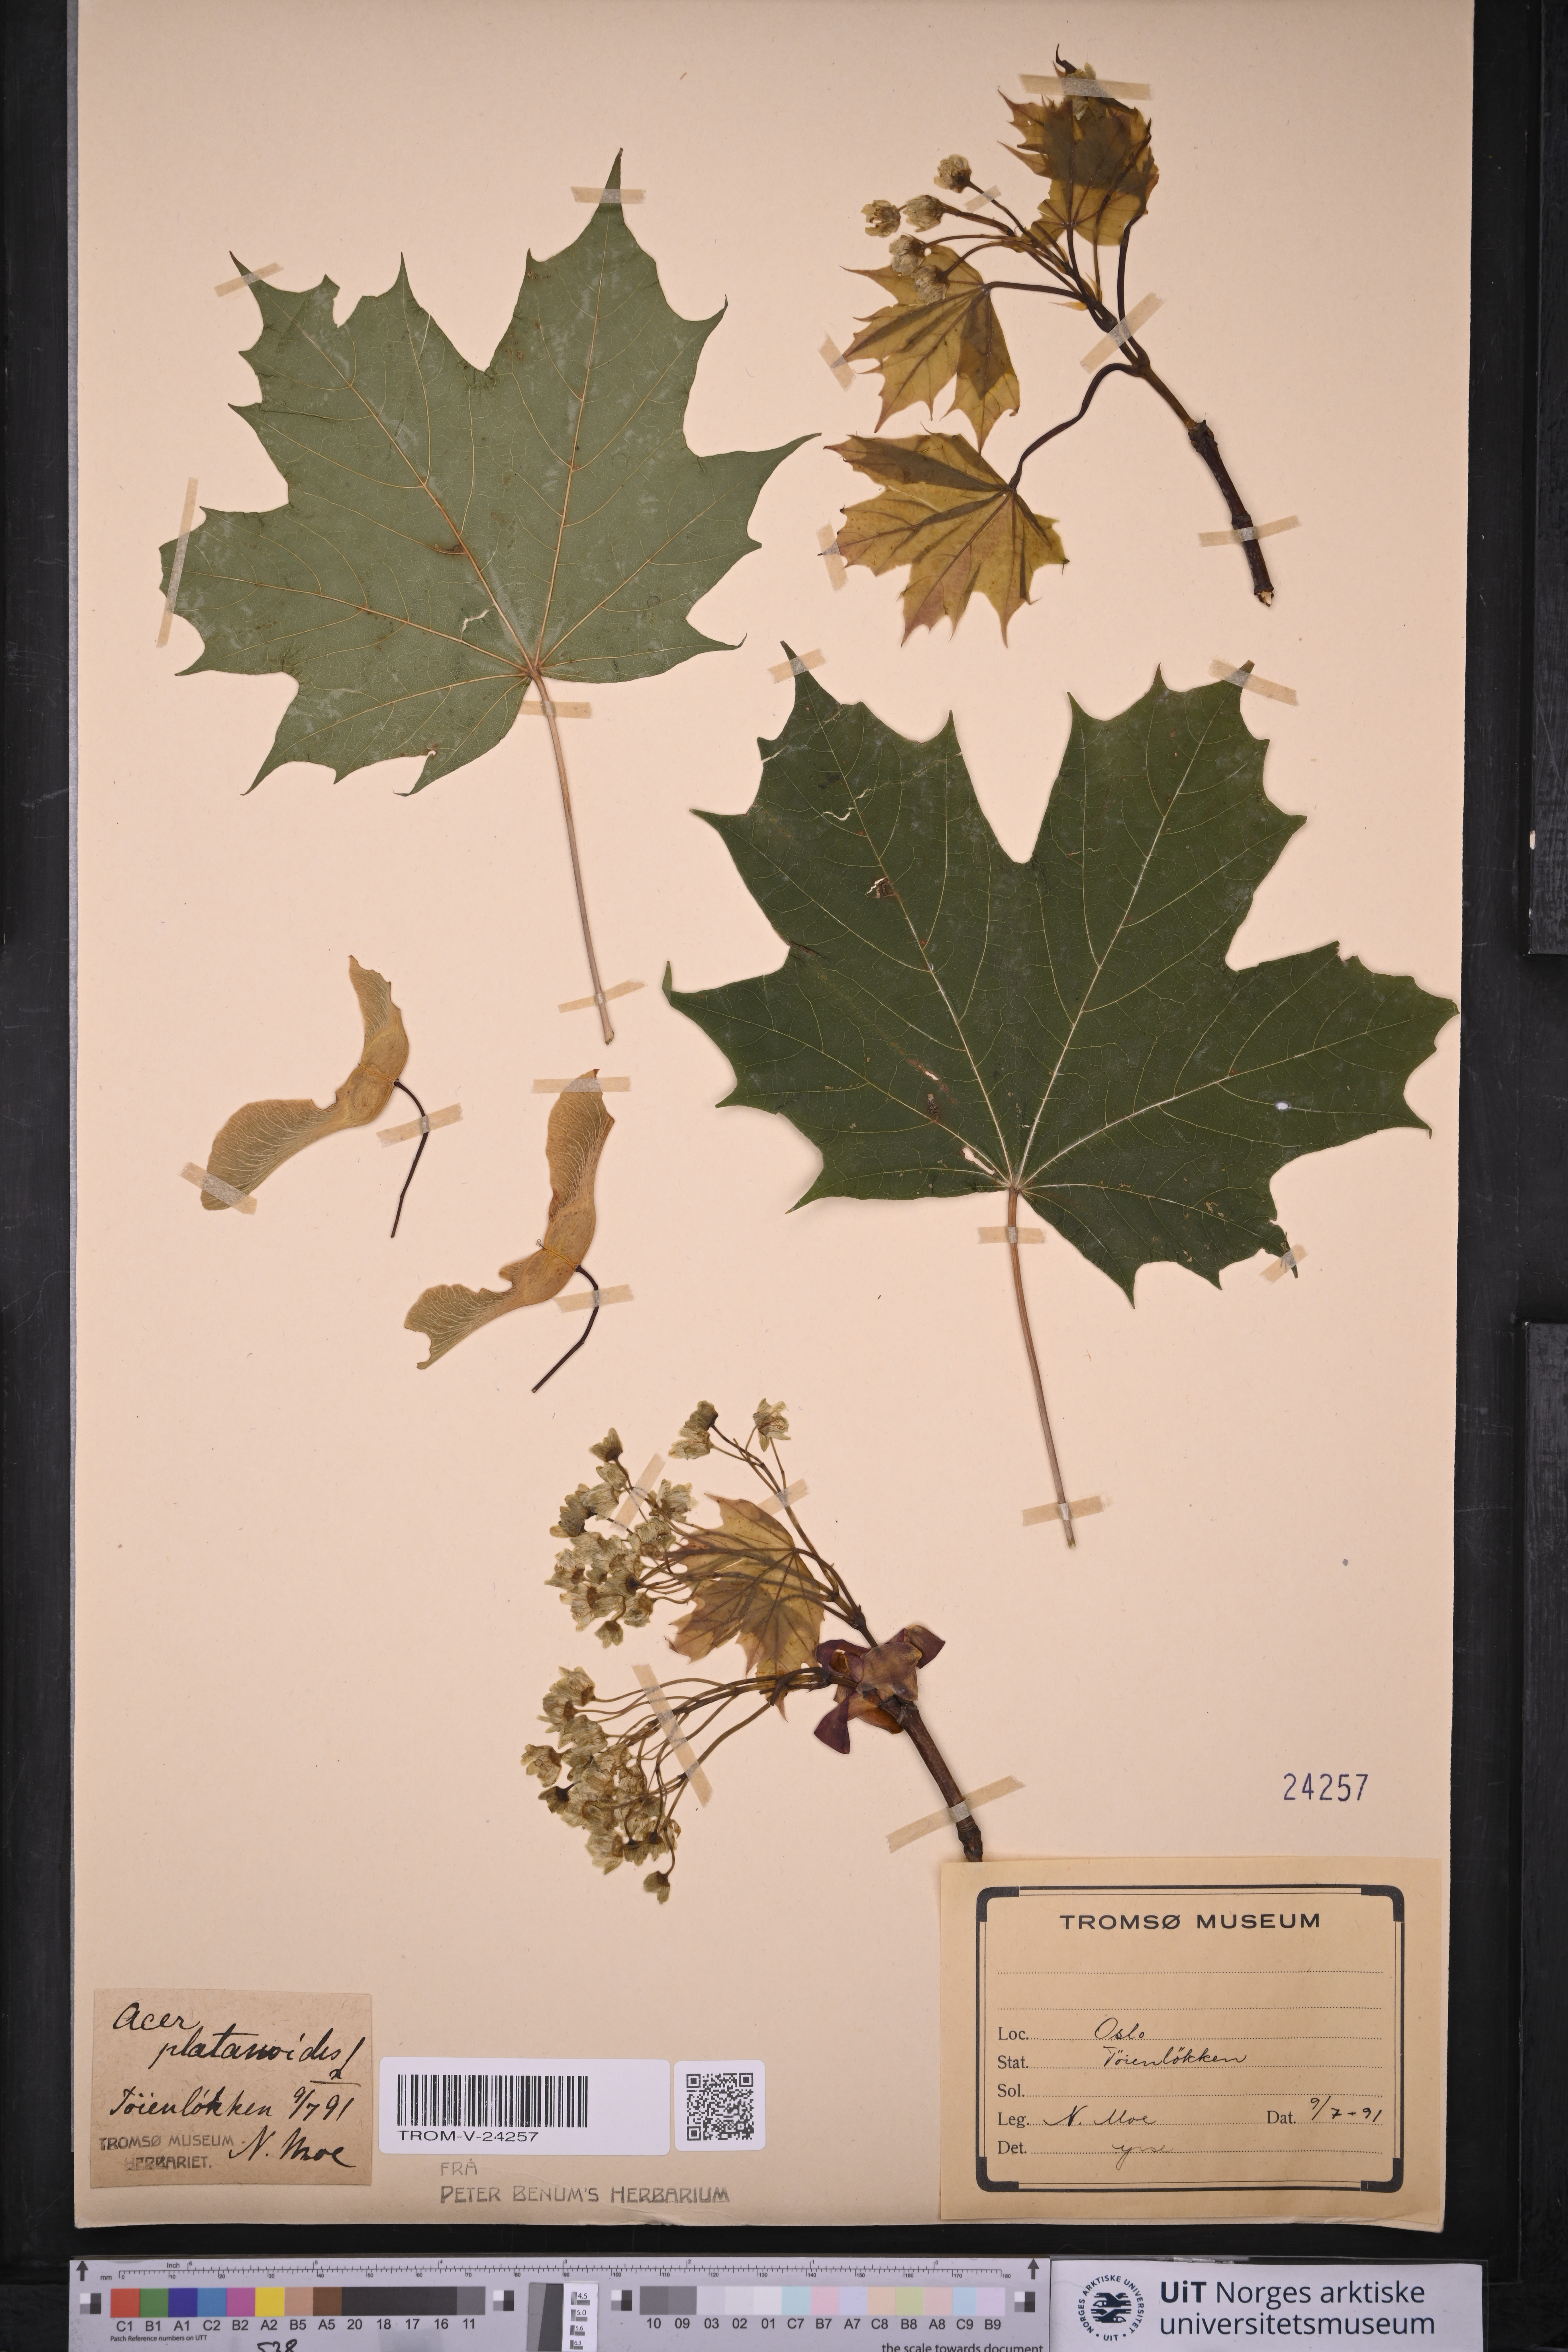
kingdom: Plantae
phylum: Tracheophyta
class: Magnoliopsida
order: Sapindales
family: Sapindaceae
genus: Acer
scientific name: Acer platanoides
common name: Norway maple
